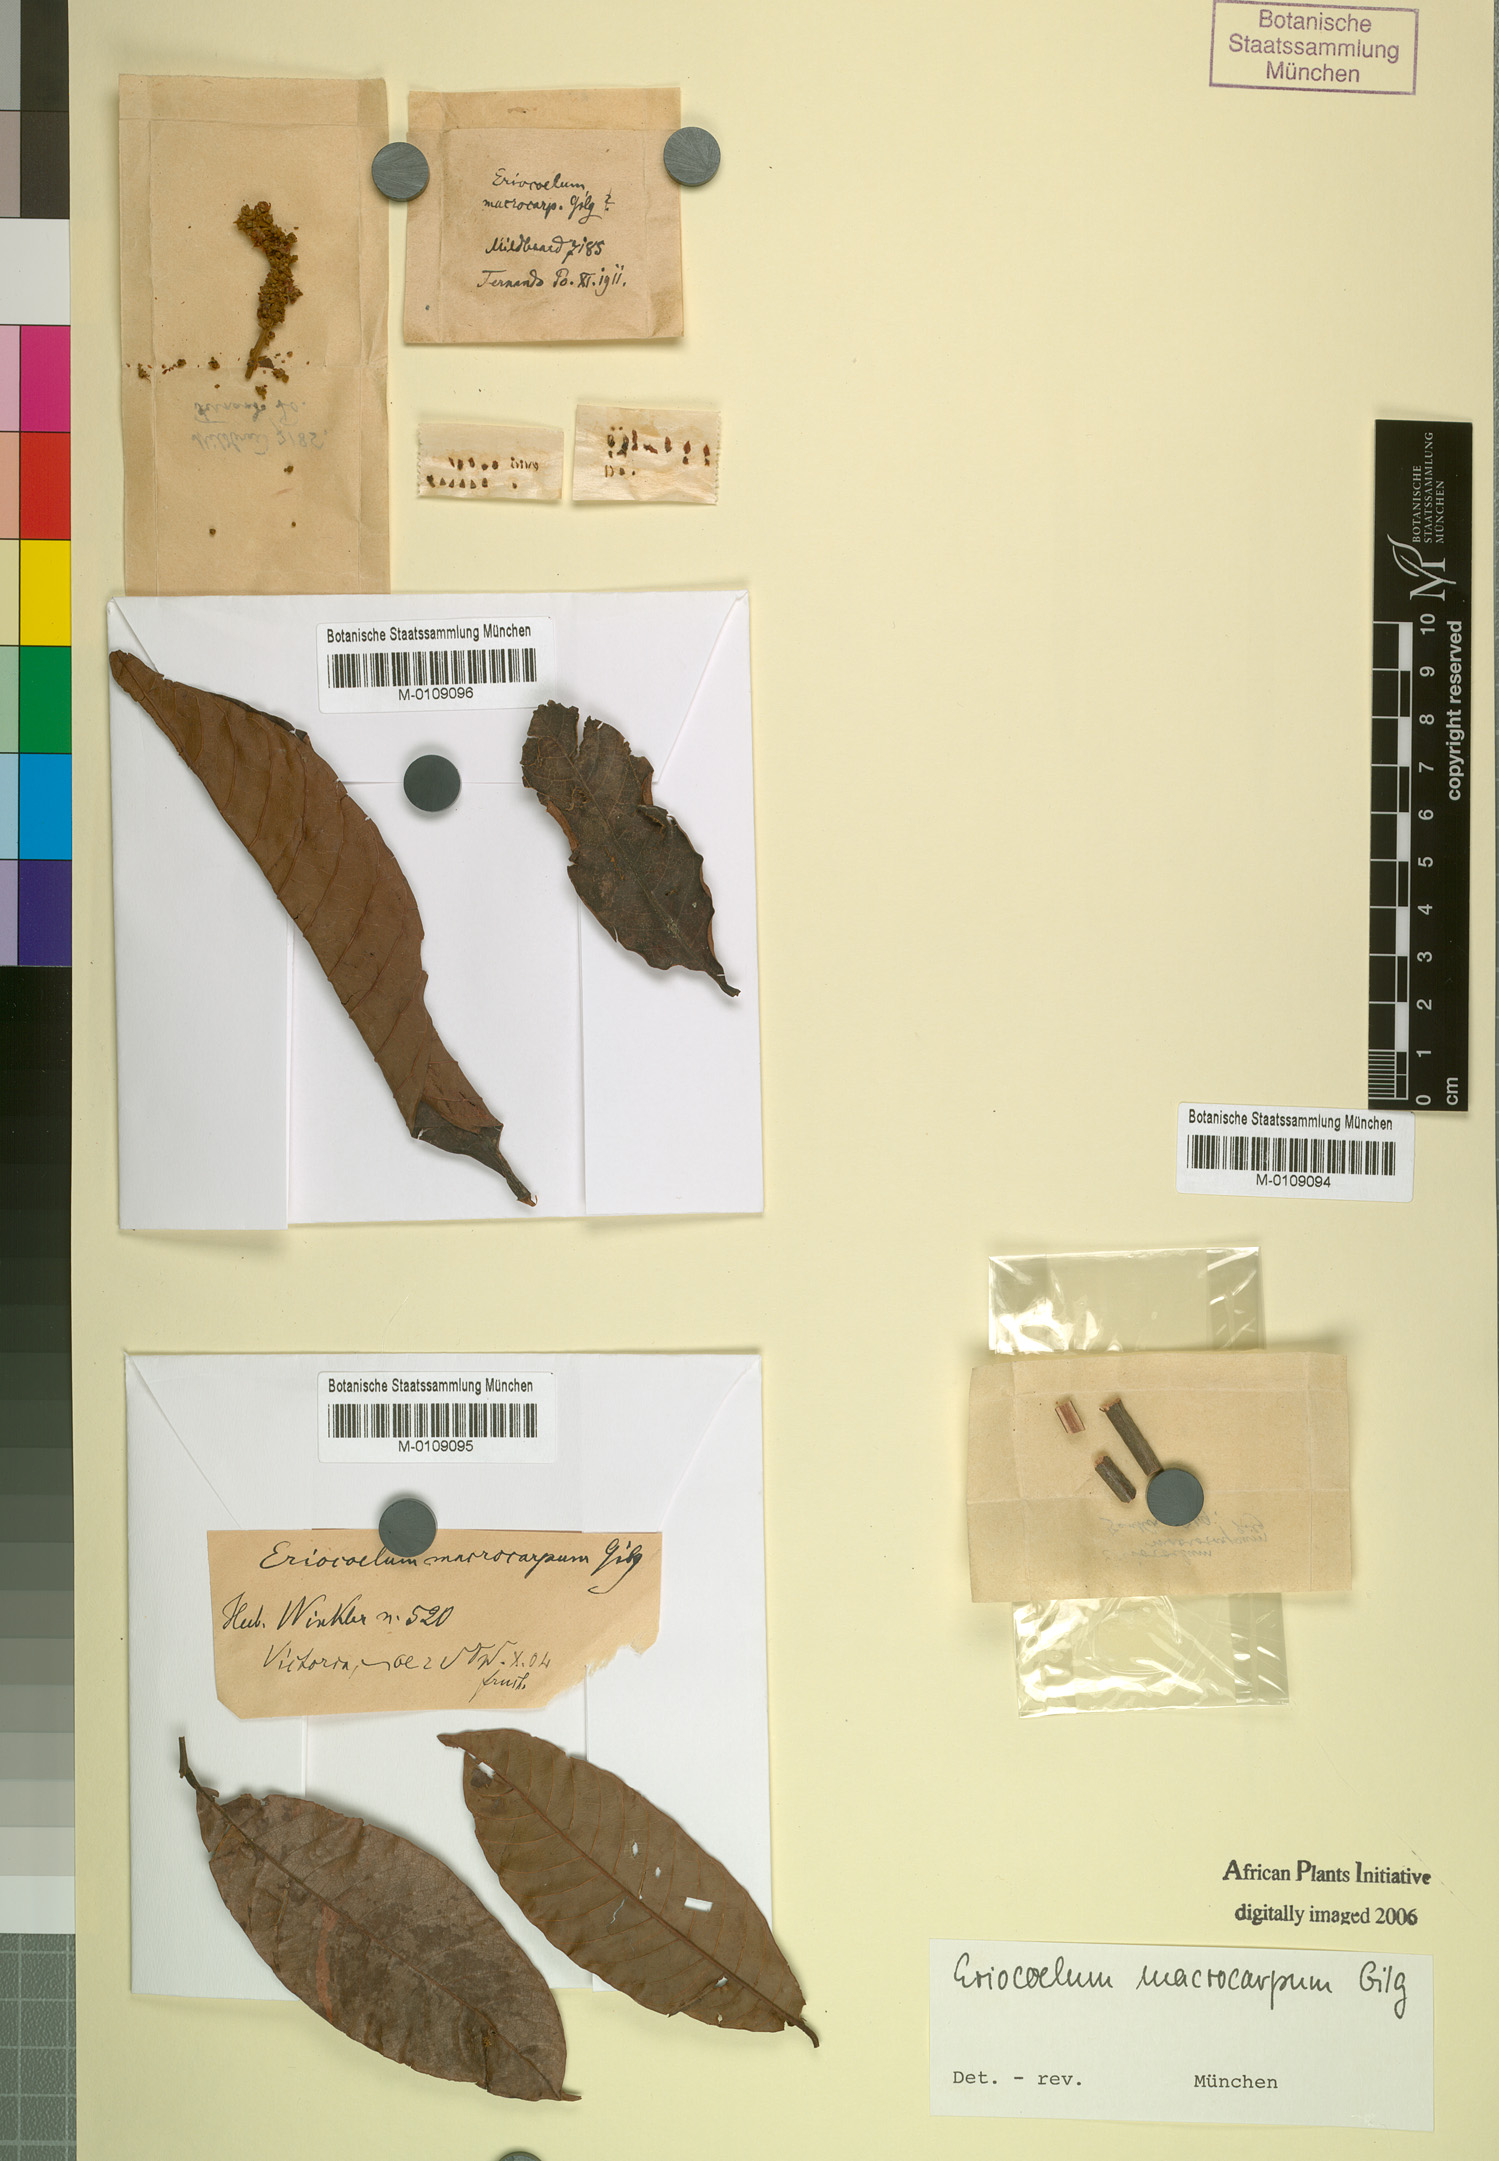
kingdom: Plantae
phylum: Tracheophyta
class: Magnoliopsida
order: Sapindales
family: Sapindaceae
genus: Eriocoelum
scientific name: Eriocoelum macrocarpum
